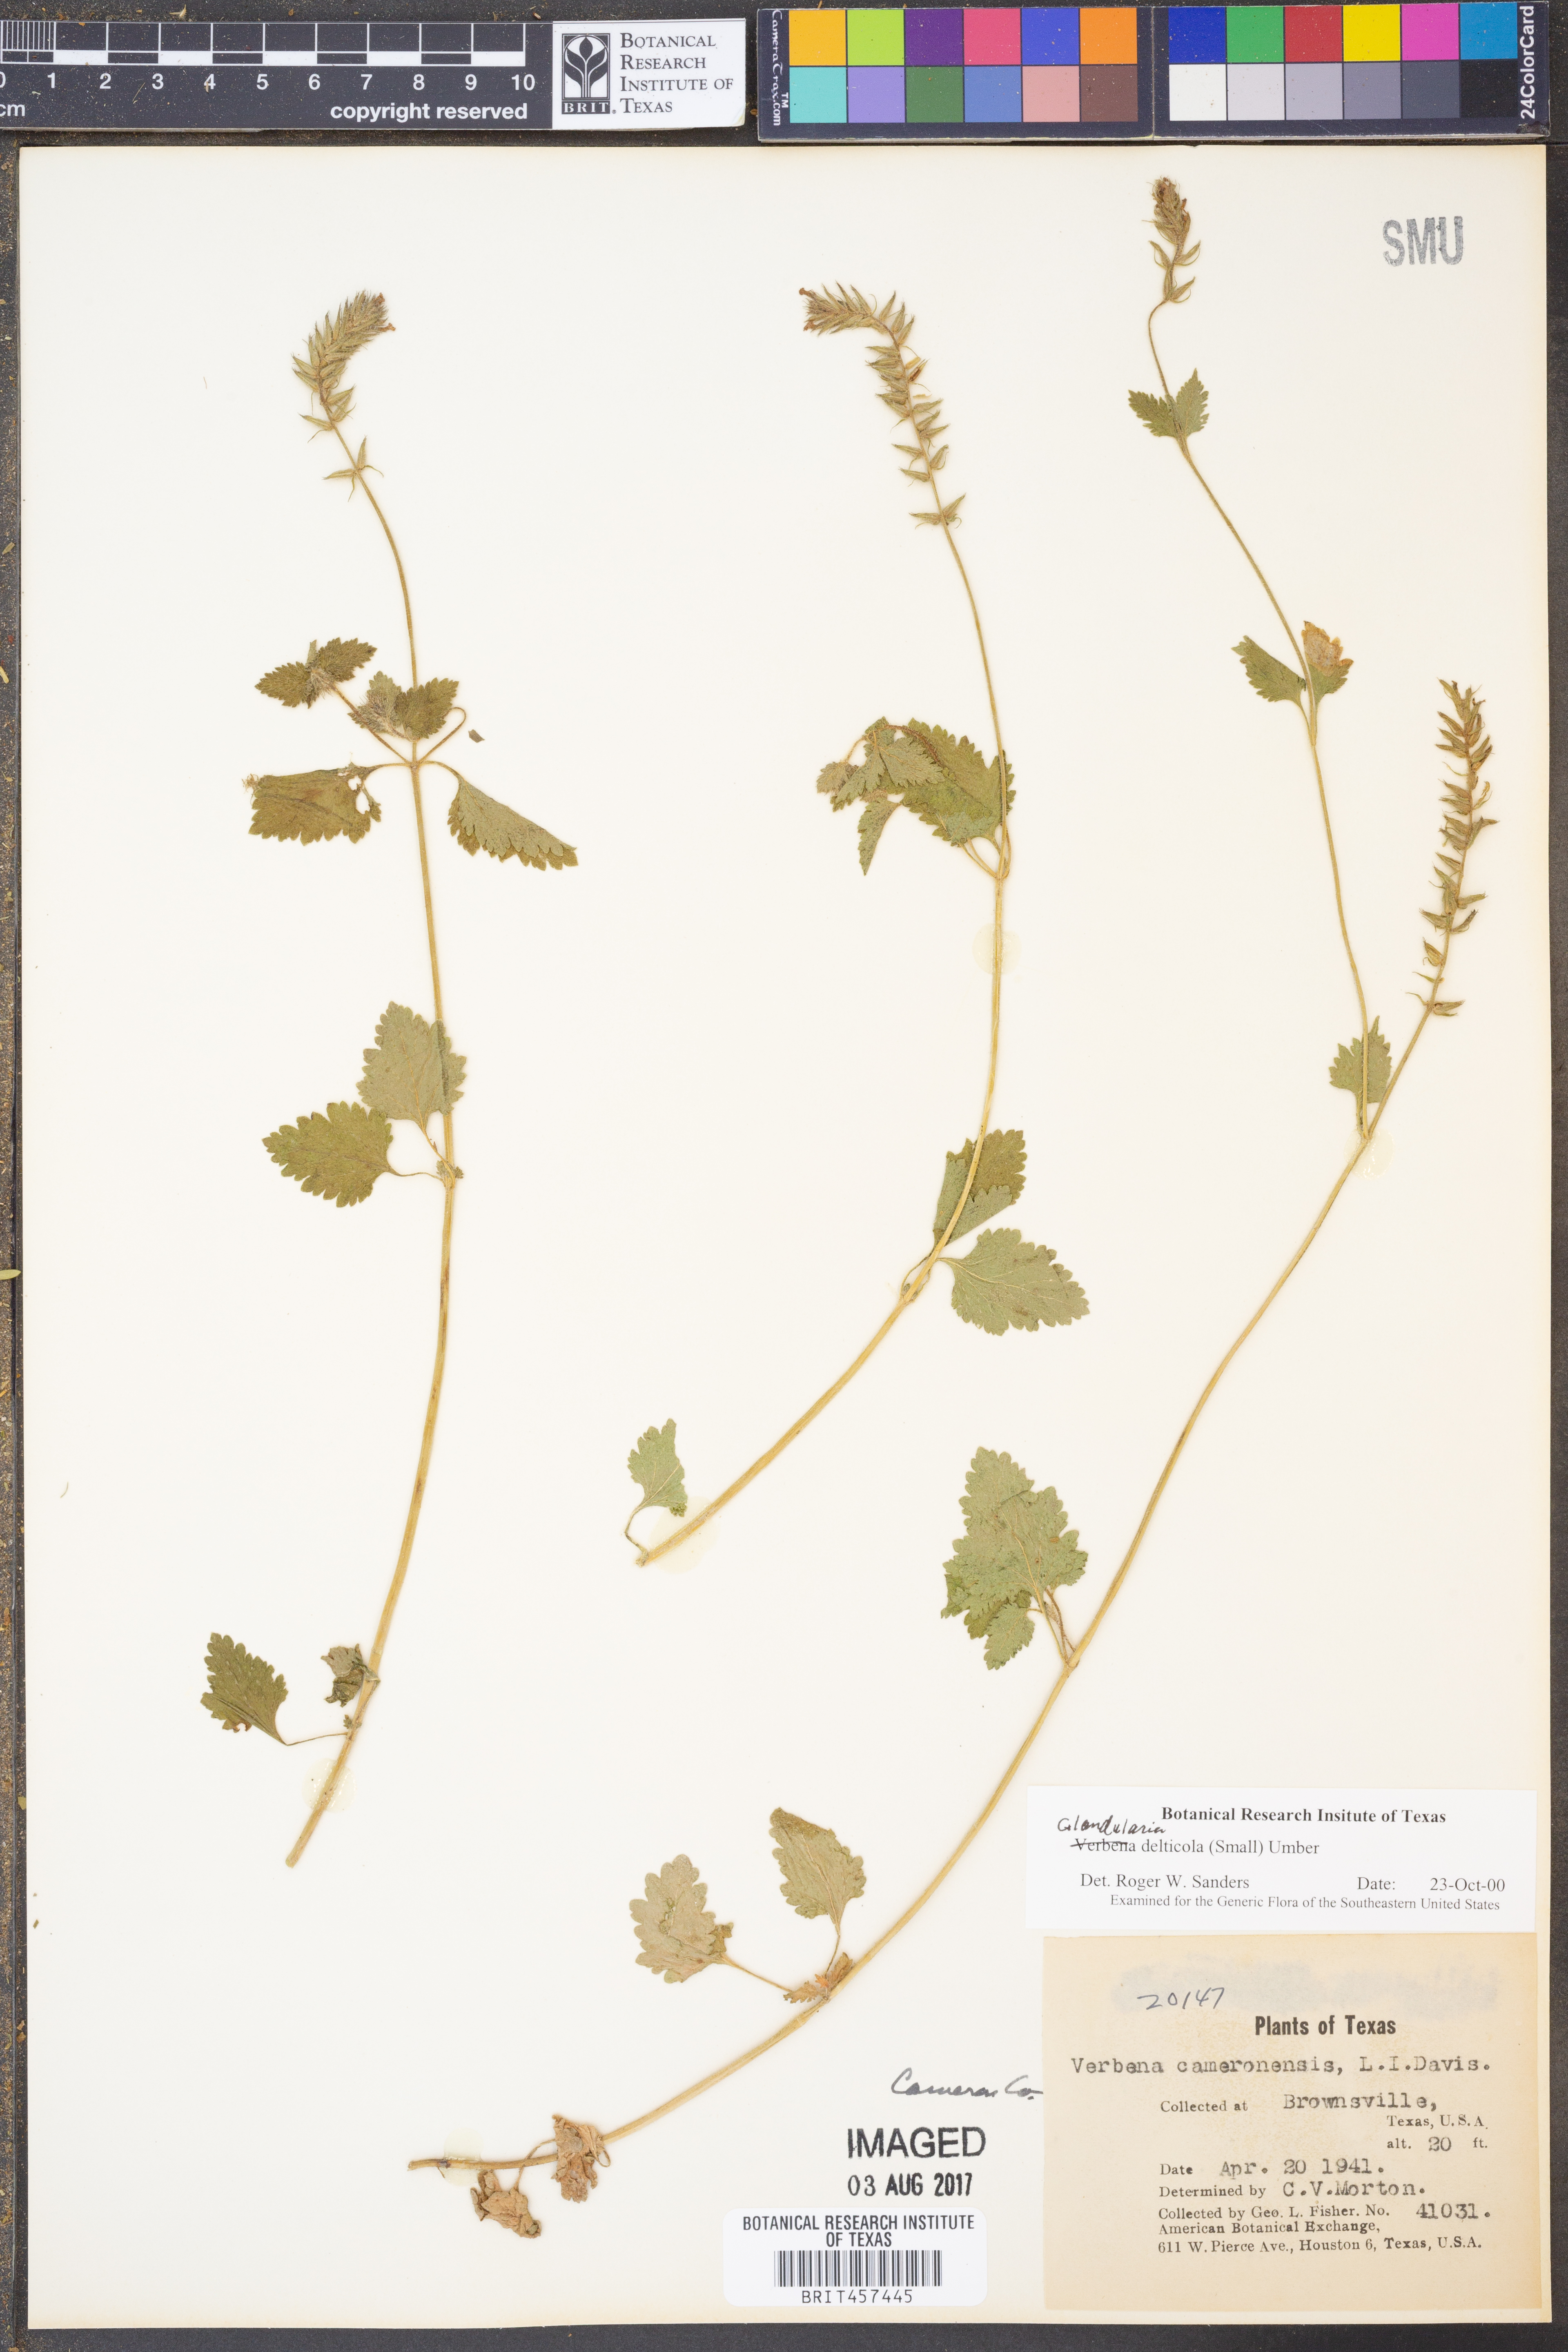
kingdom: Plantae
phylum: Tracheophyta
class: Magnoliopsida
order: Lamiales
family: Verbenaceae
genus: Verbena
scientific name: Verbena delticola
